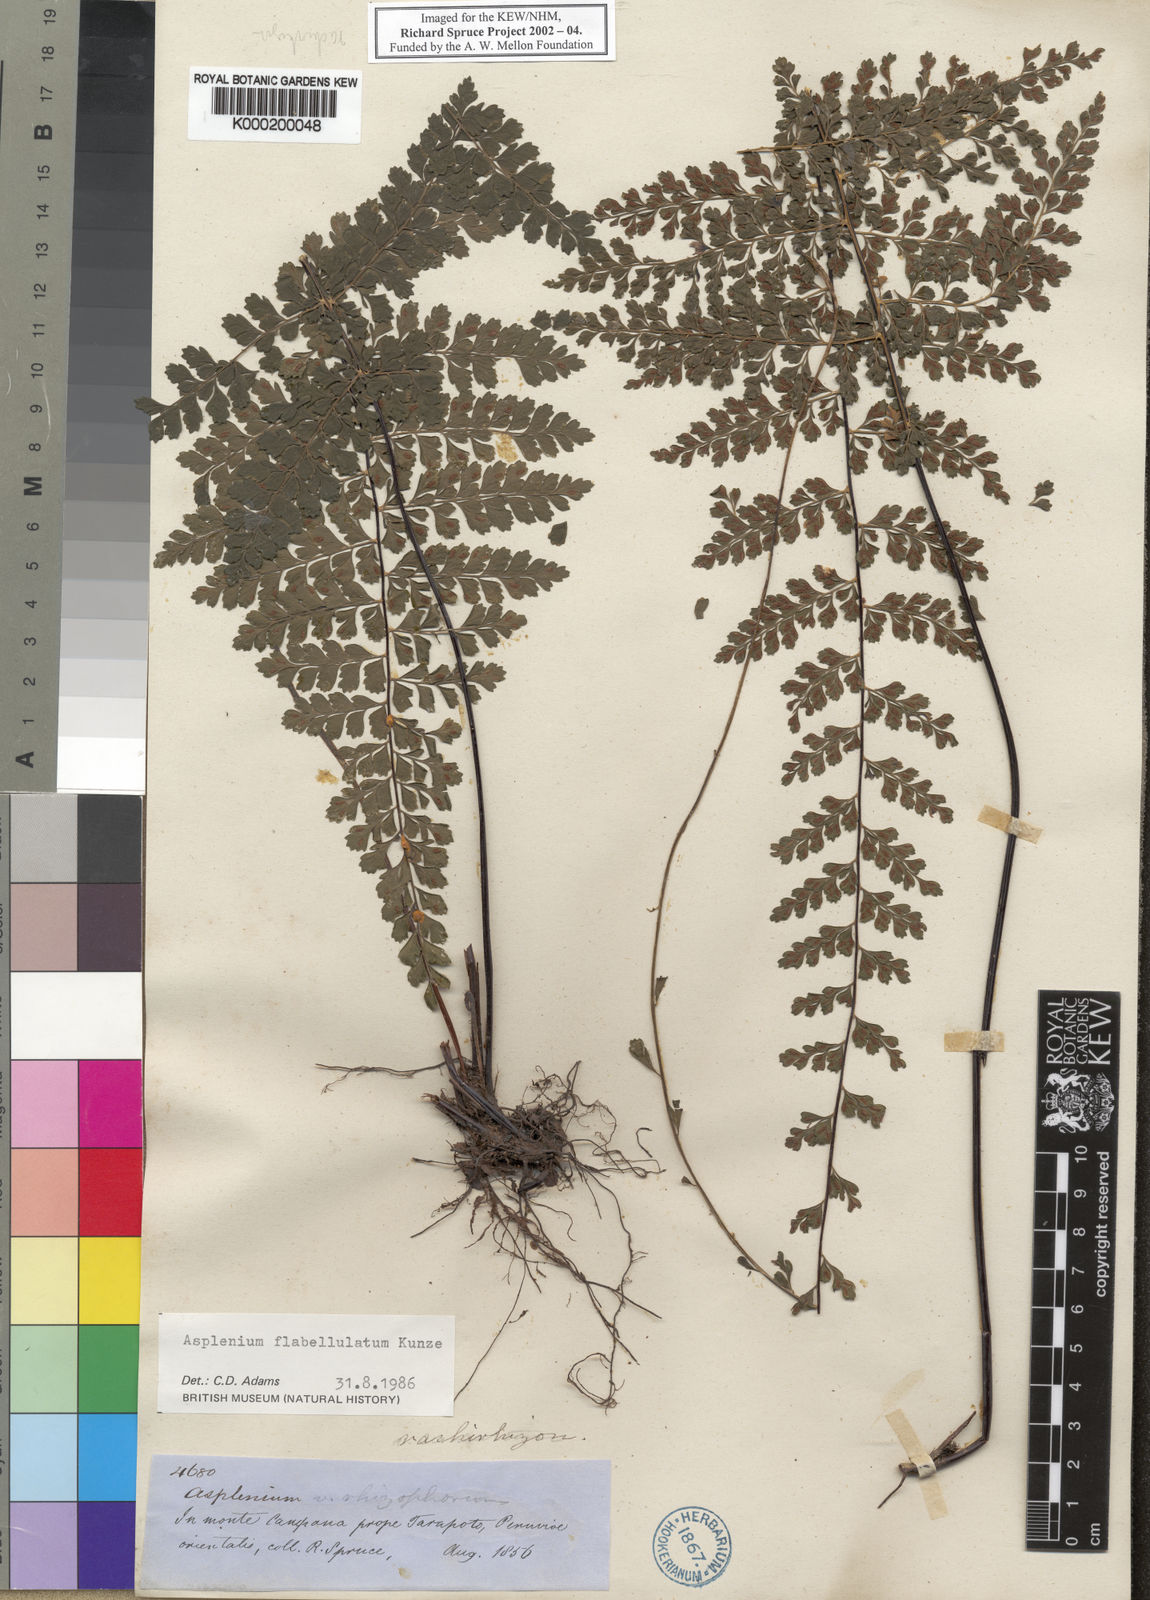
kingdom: Plantae
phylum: Tracheophyta
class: Polypodiopsida
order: Polypodiales
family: Aspleniaceae
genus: Asplenium
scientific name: Asplenium flabellulatum
